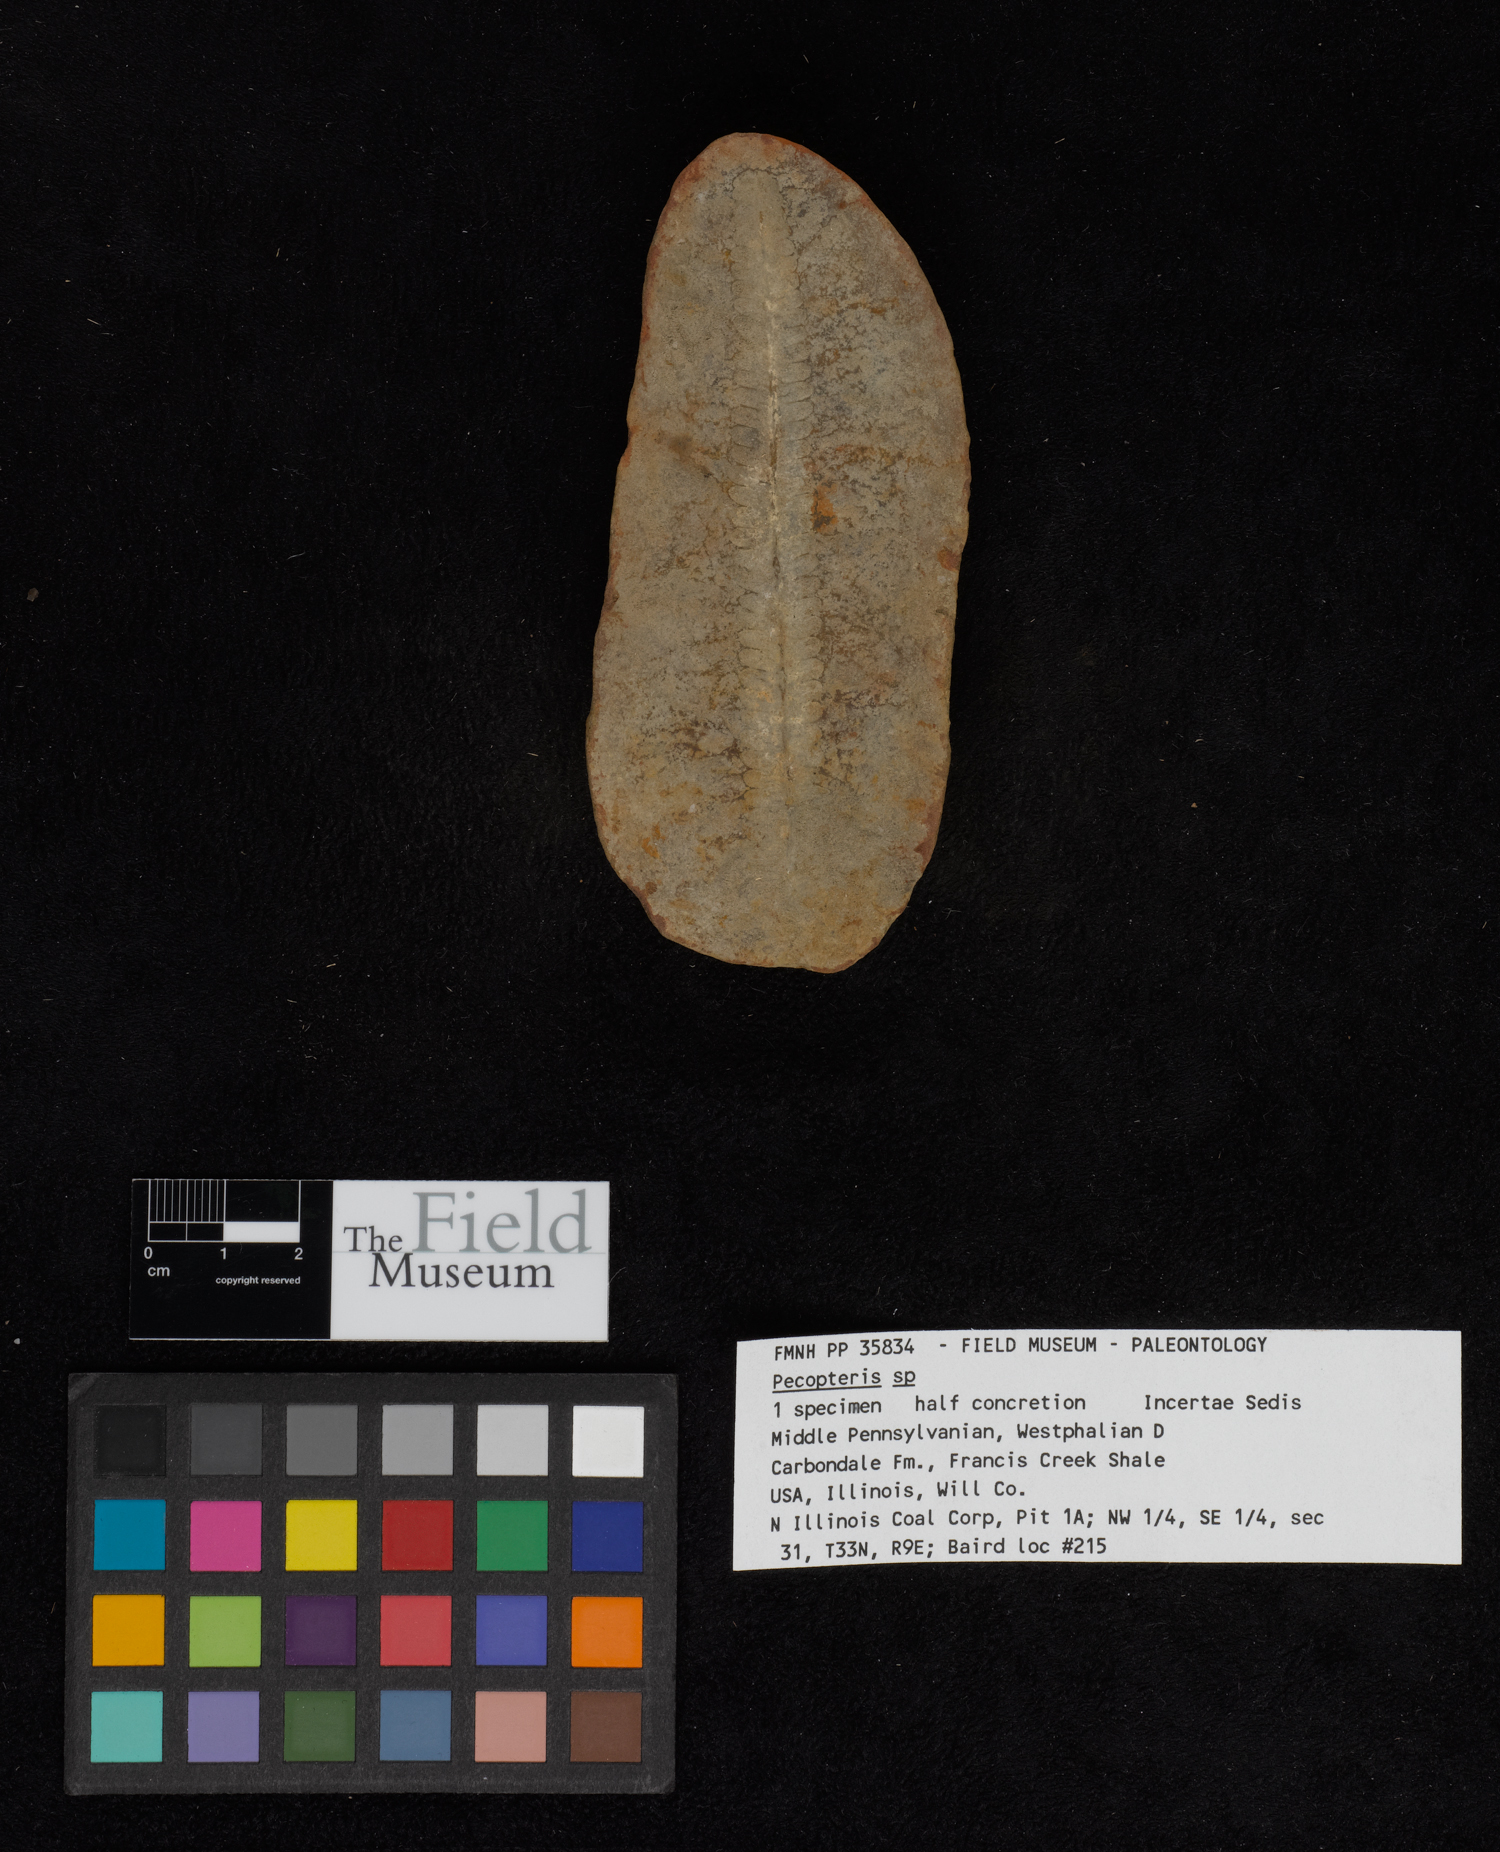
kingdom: Plantae
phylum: Tracheophyta
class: Polypodiopsida
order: Marattiales
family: Asterothecaceae
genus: Pecopteris
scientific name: Pecopteris
